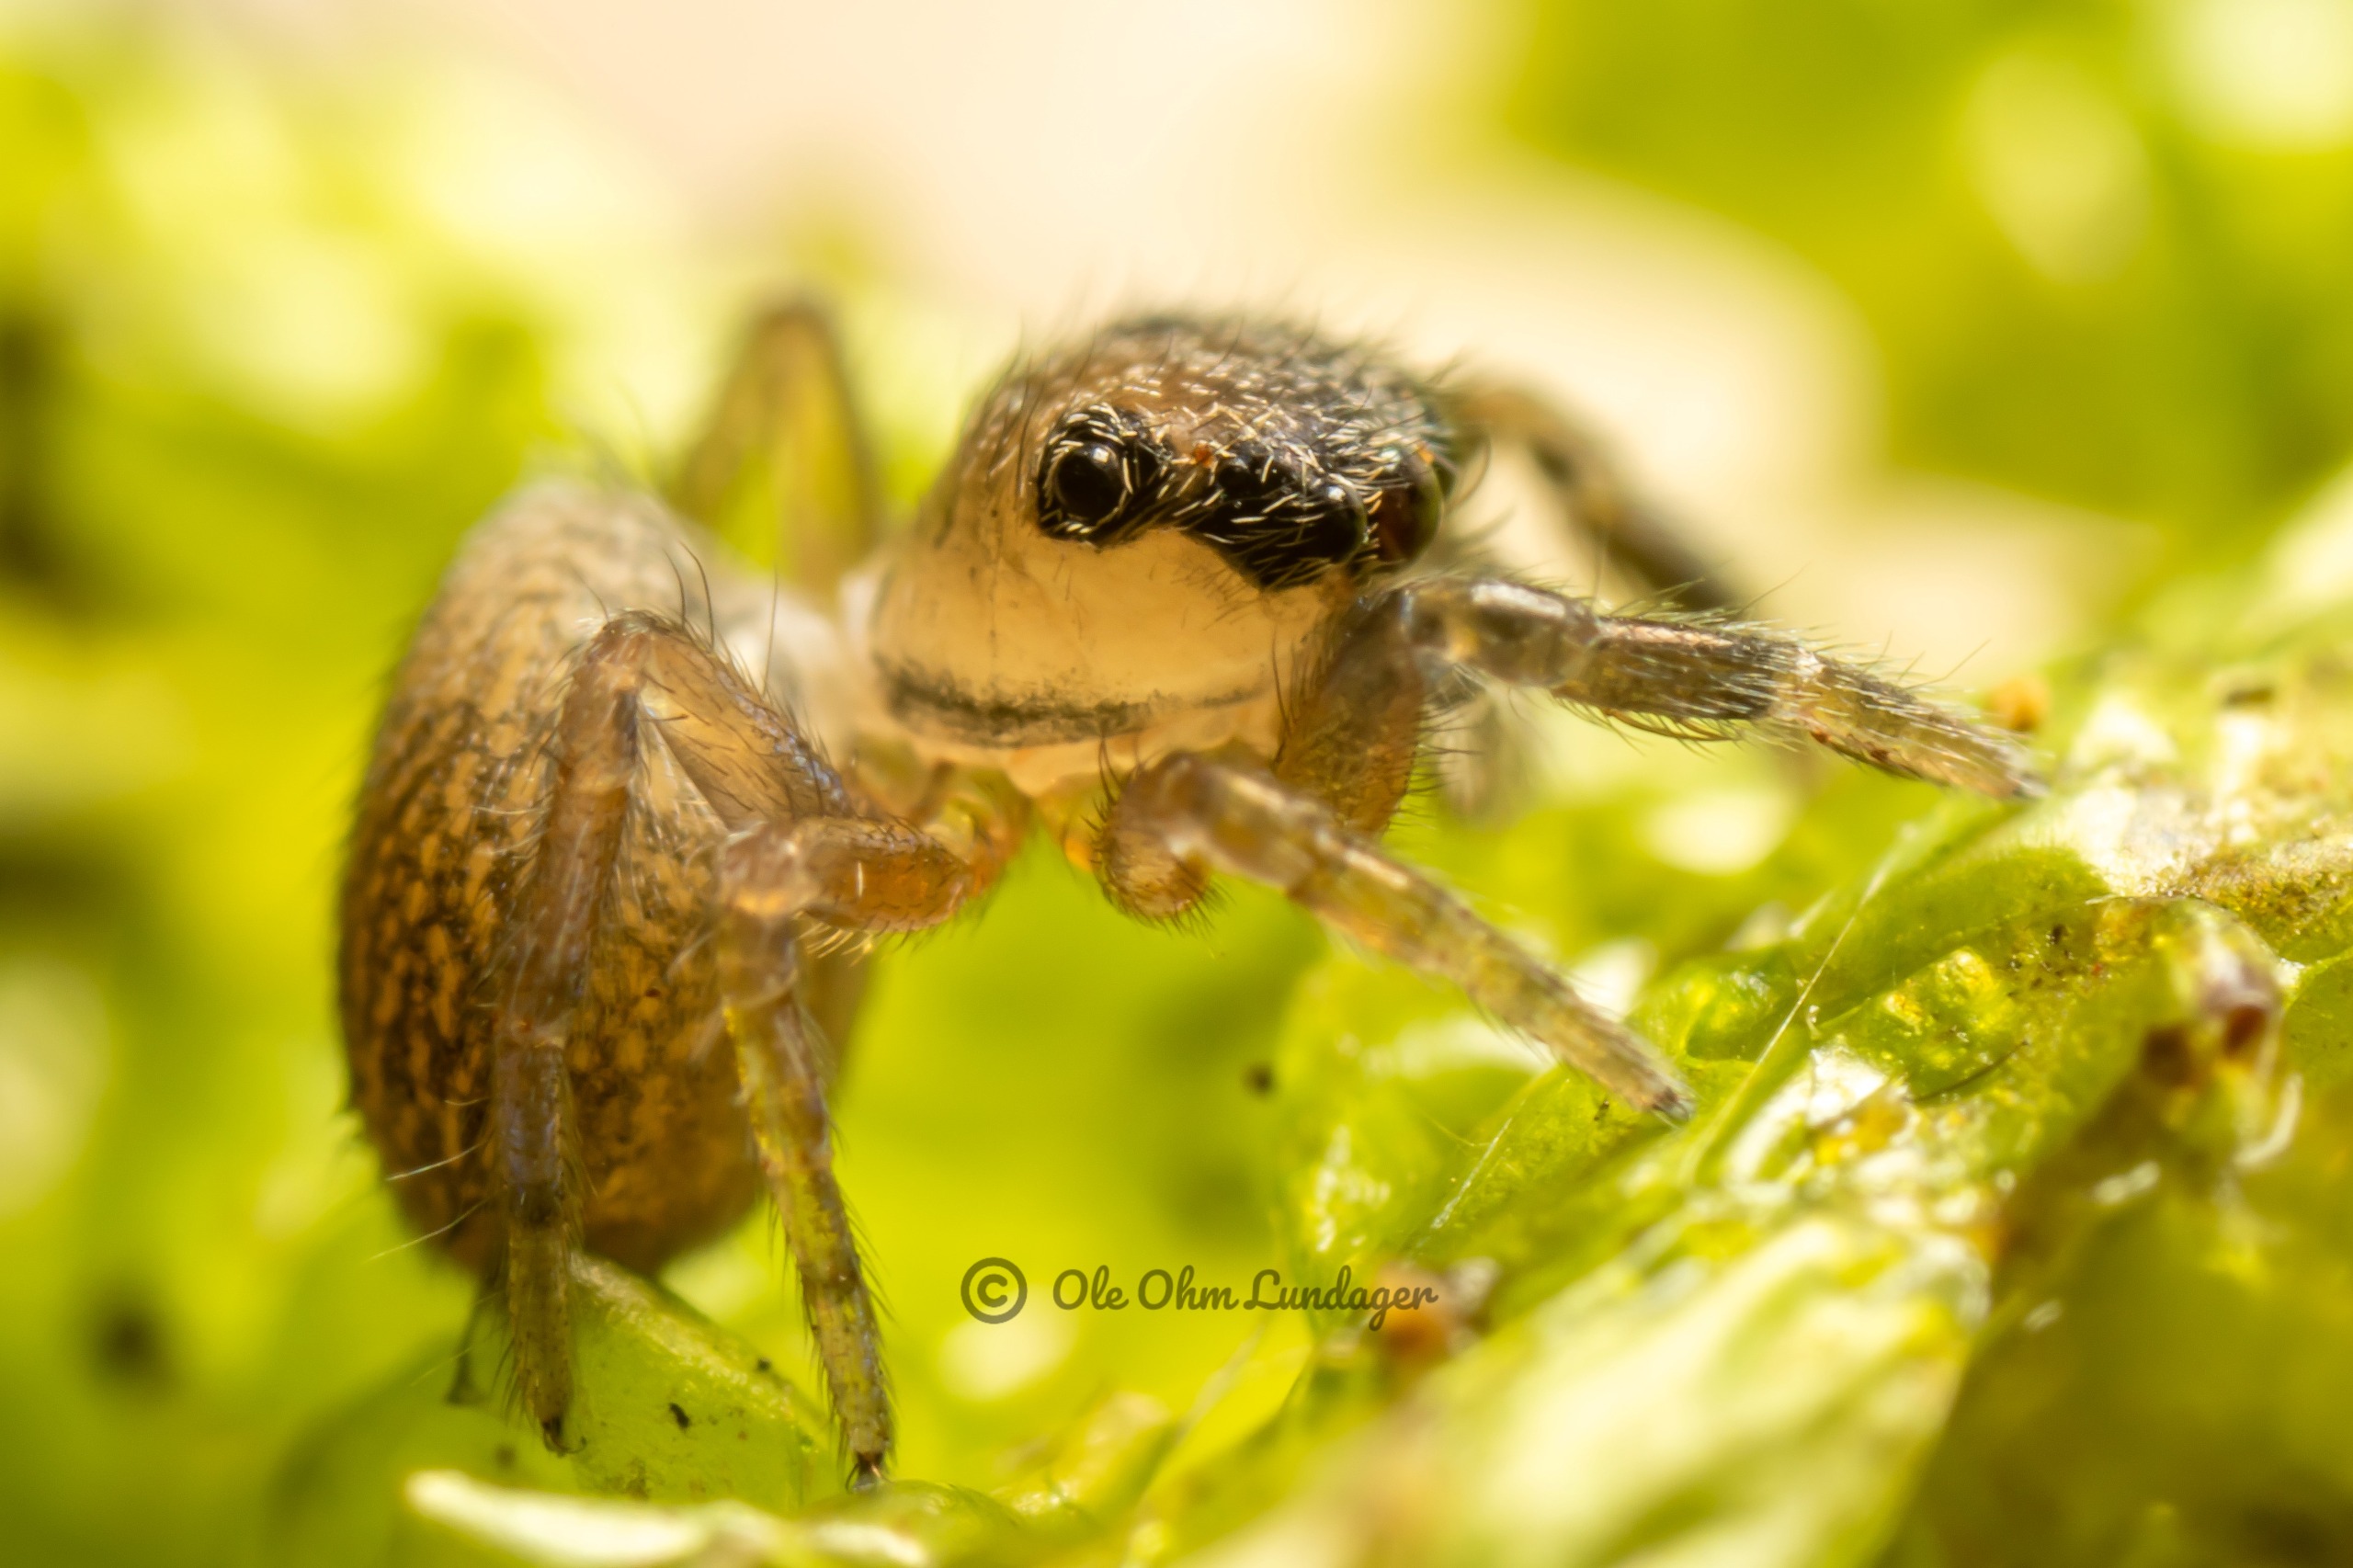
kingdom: Animalia
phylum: Arthropoda
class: Arachnida
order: Araneae
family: Salticidae
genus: Neon
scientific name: Neon reticulatus
